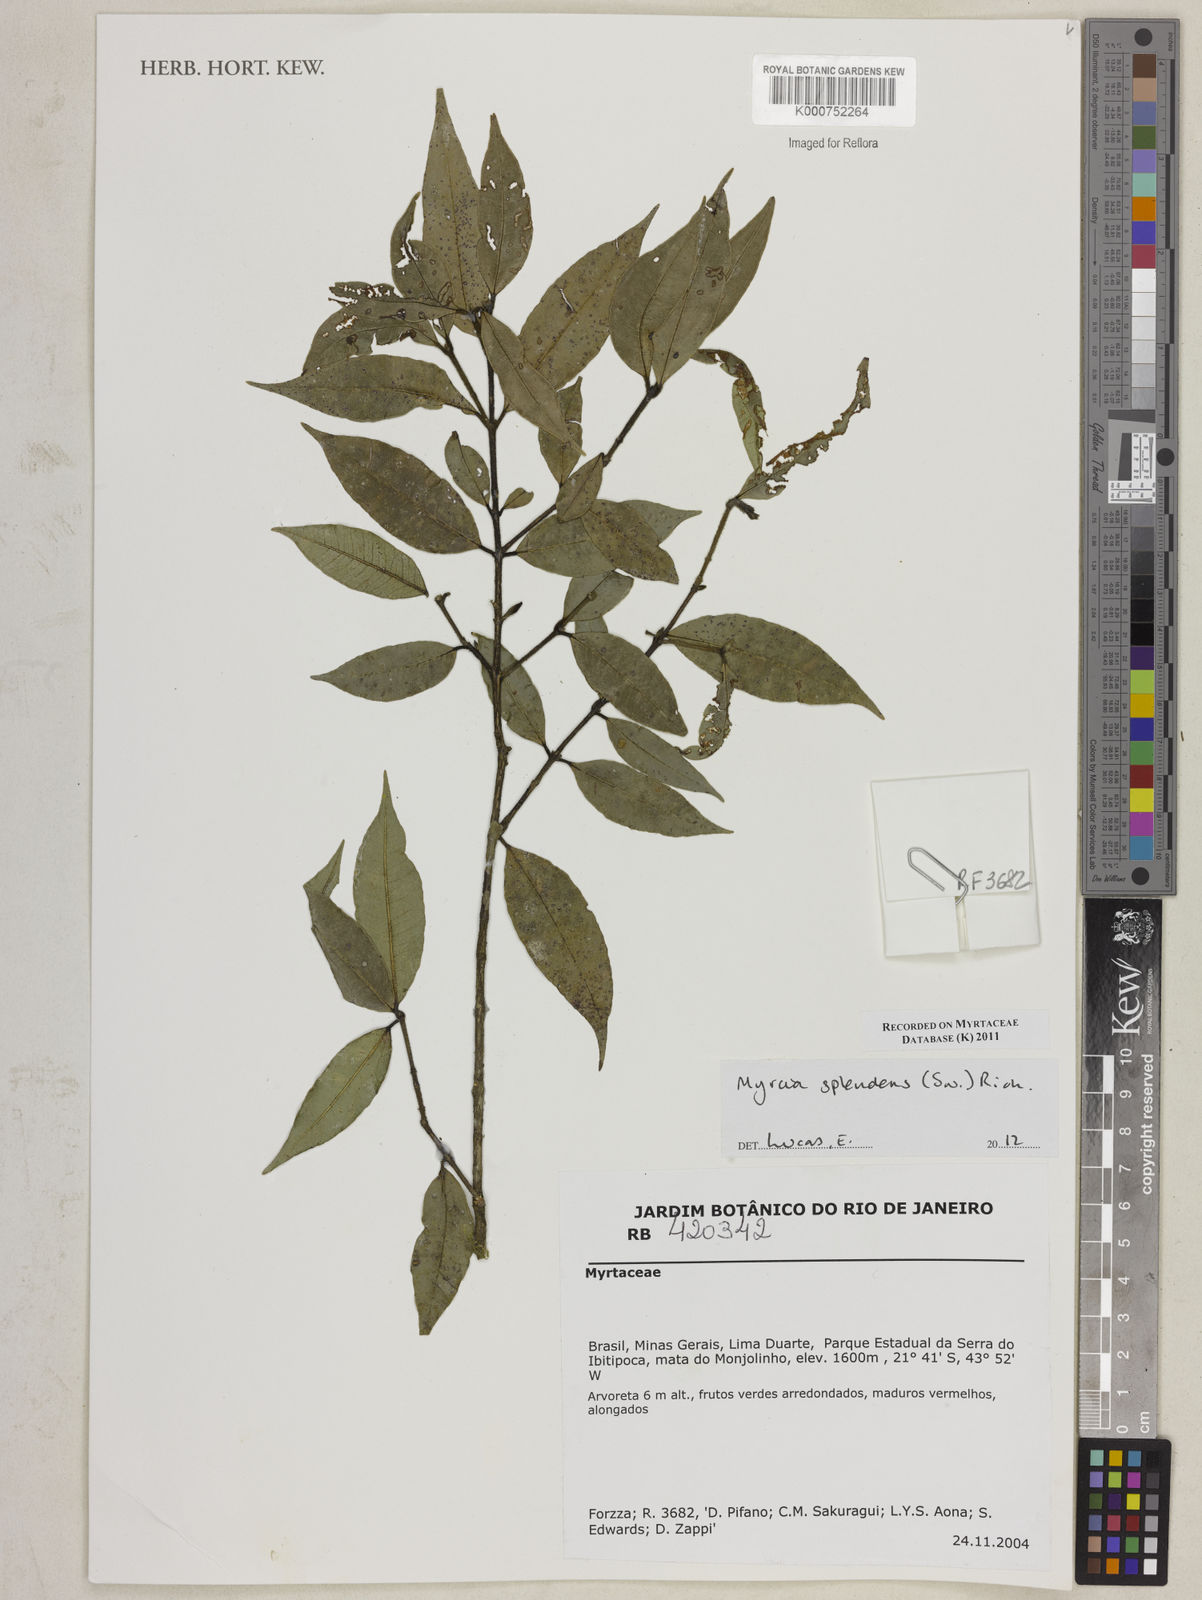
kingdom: Plantae
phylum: Tracheophyta
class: Magnoliopsida
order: Myrtales
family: Myrtaceae
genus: Myrcia
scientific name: Myrcia splendens
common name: Surinam cherry
